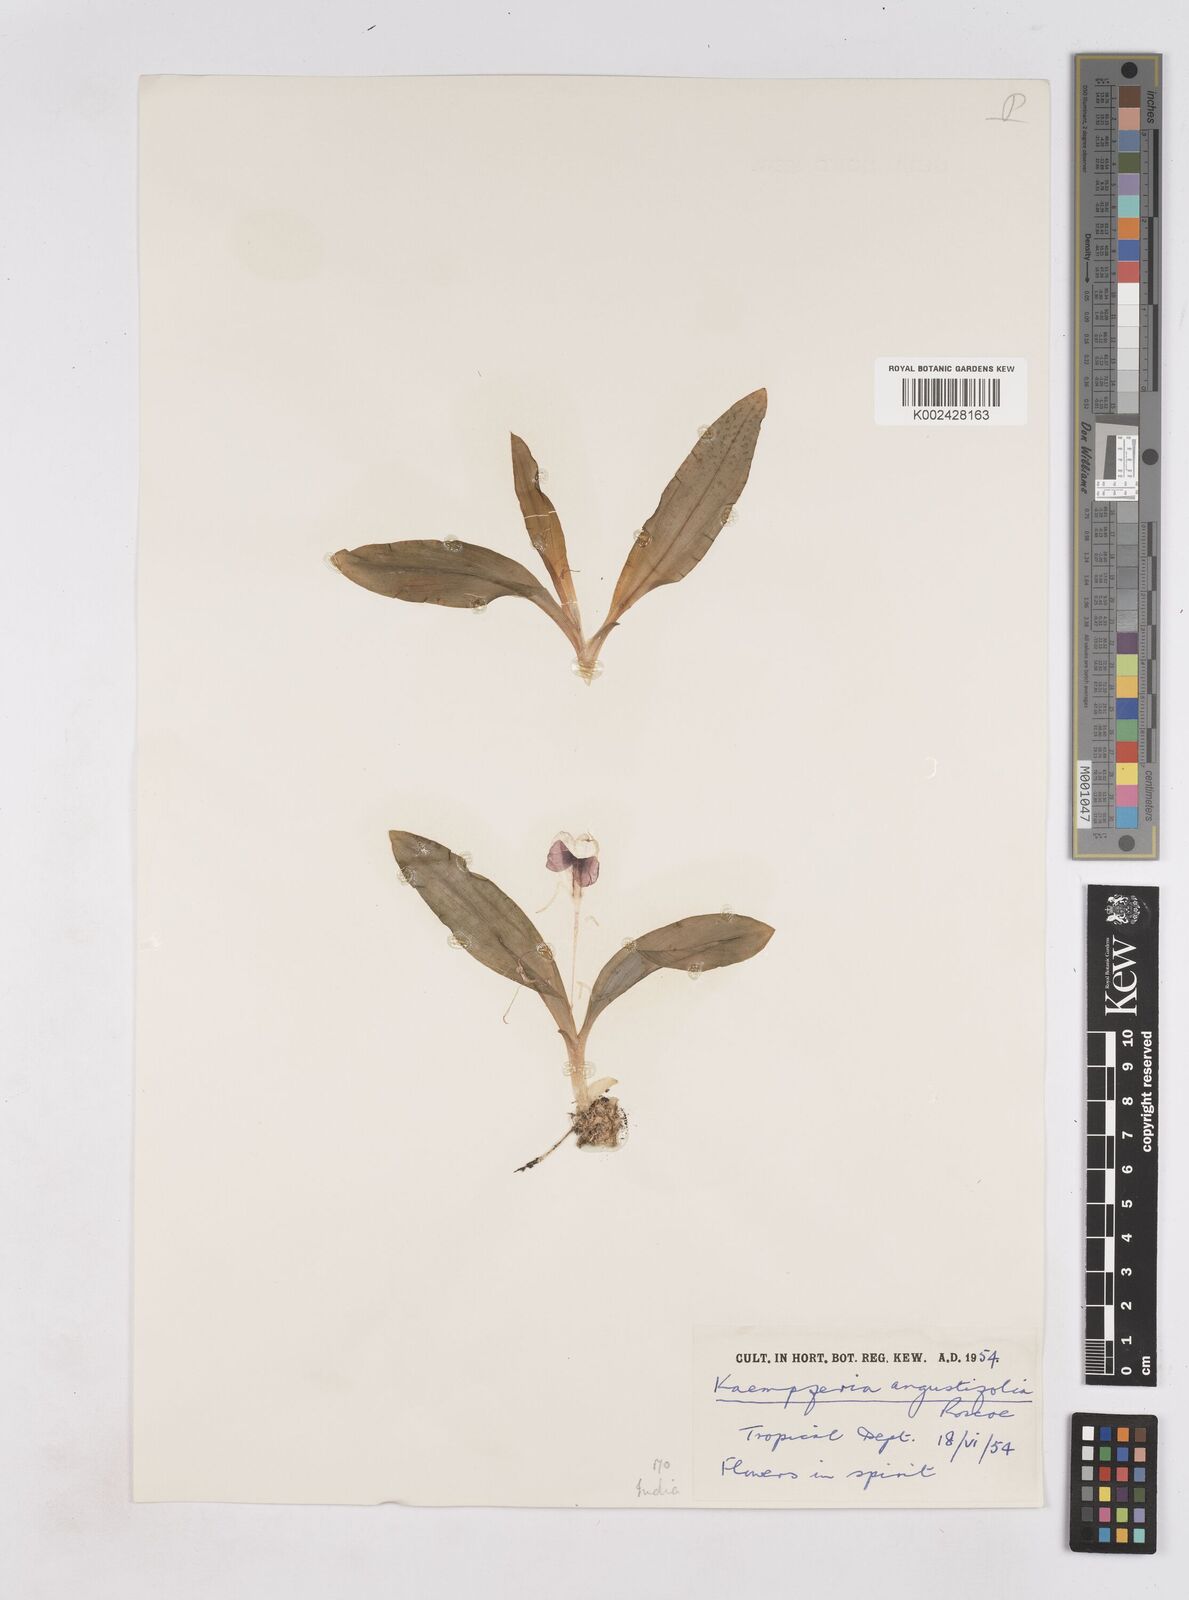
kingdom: Plantae
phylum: Tracheophyta
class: Liliopsida
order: Zingiberales
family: Zingiberaceae
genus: Kaempferia
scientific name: Kaempferia angustifolia
